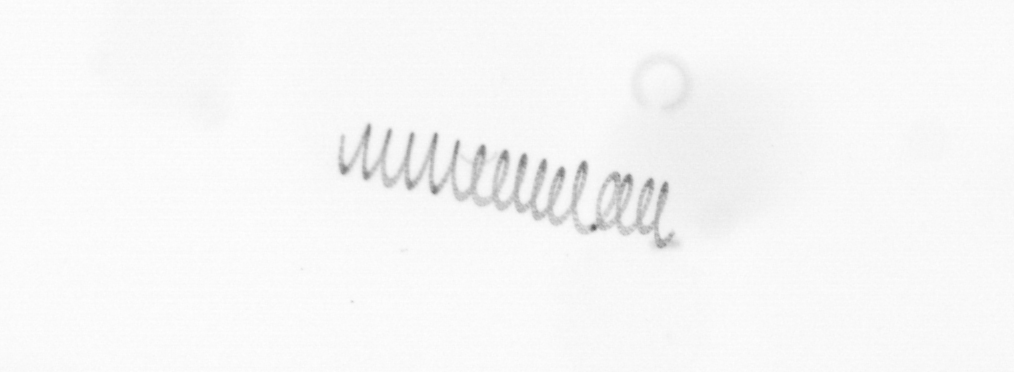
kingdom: Chromista
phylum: Ochrophyta
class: Bacillariophyceae
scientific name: Bacillariophyceae
